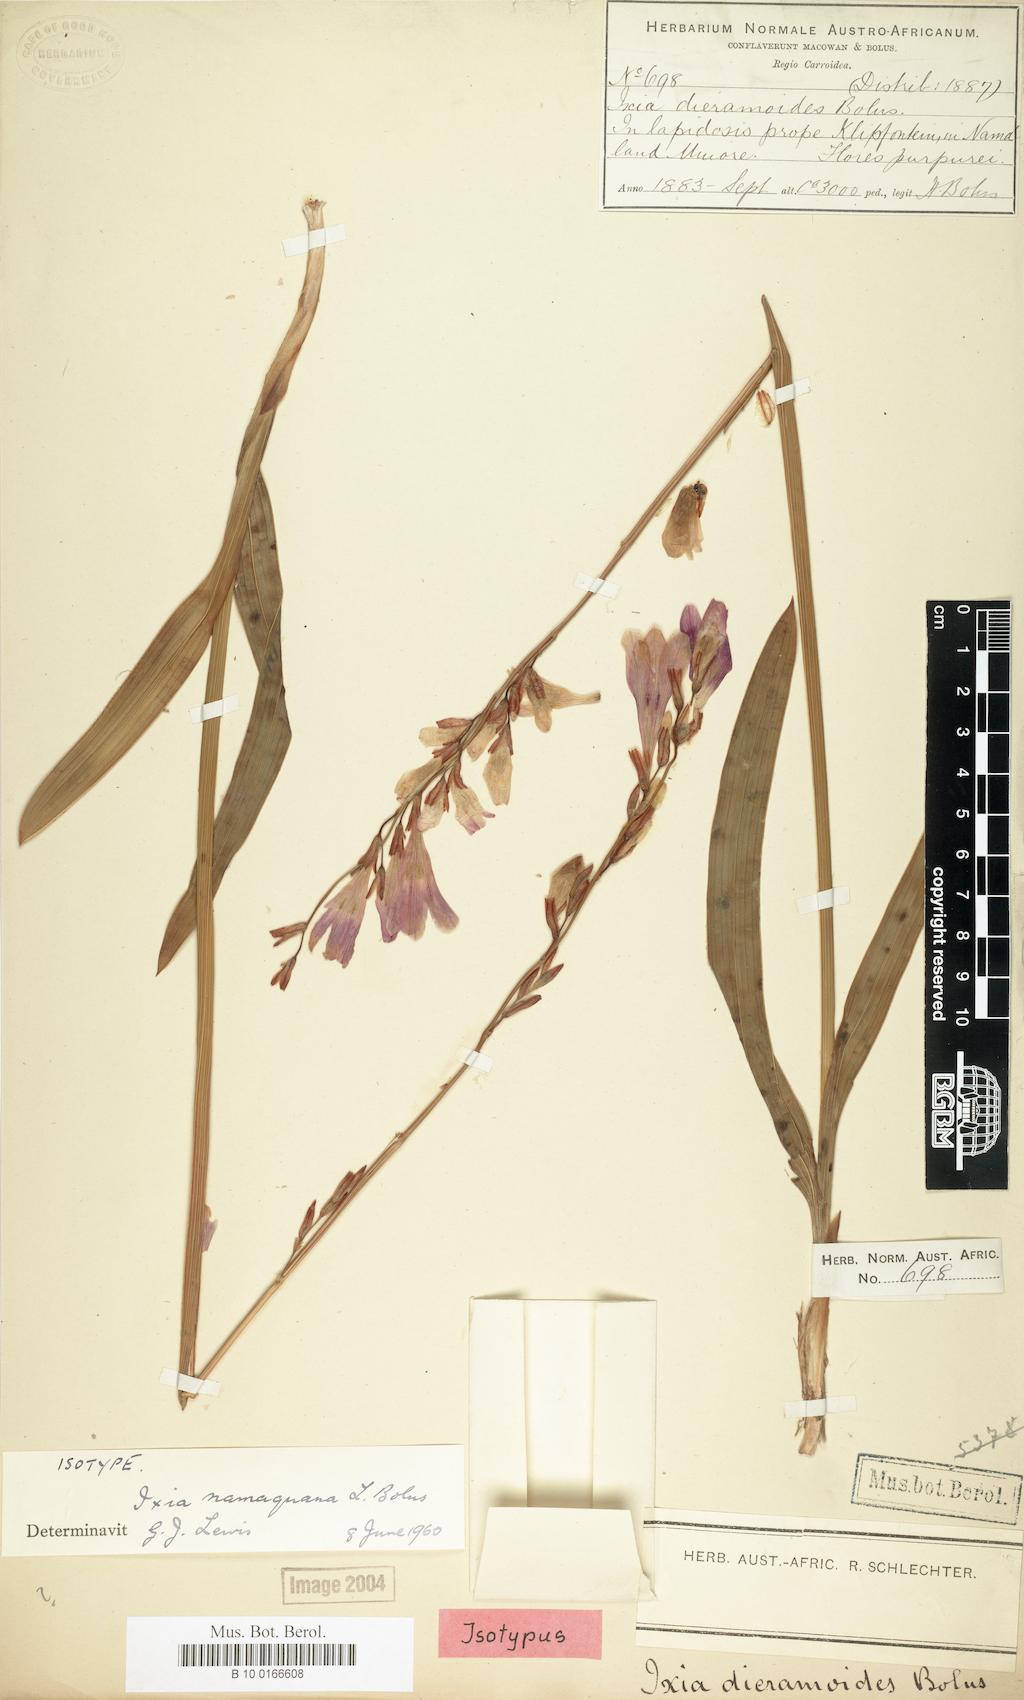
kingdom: Plantae
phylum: Tracheophyta
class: Liliopsida
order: Asparagales
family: Iridaceae
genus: Ixia
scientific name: Ixia namaquana
